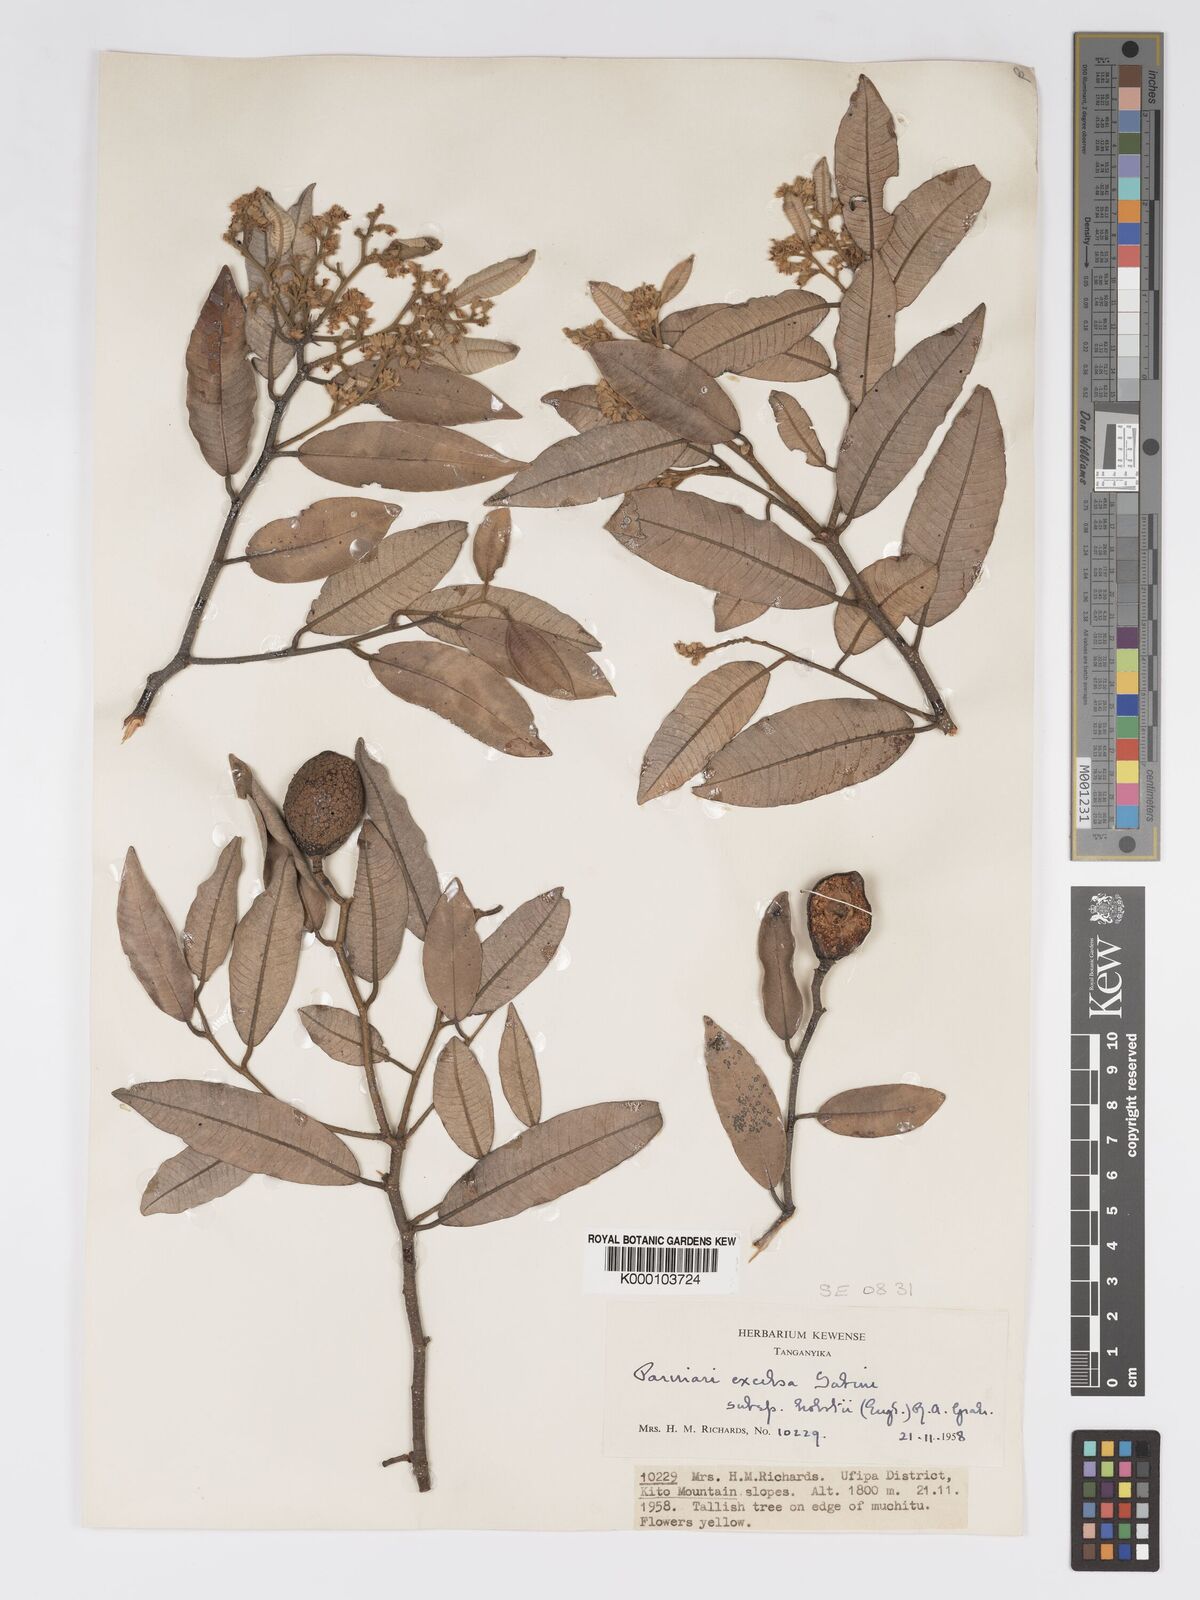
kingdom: Plantae
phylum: Tracheophyta
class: Magnoliopsida
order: Malpighiales
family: Chrysobalanaceae
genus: Parinari
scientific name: Parinari excelsa
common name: Guinea-plum
